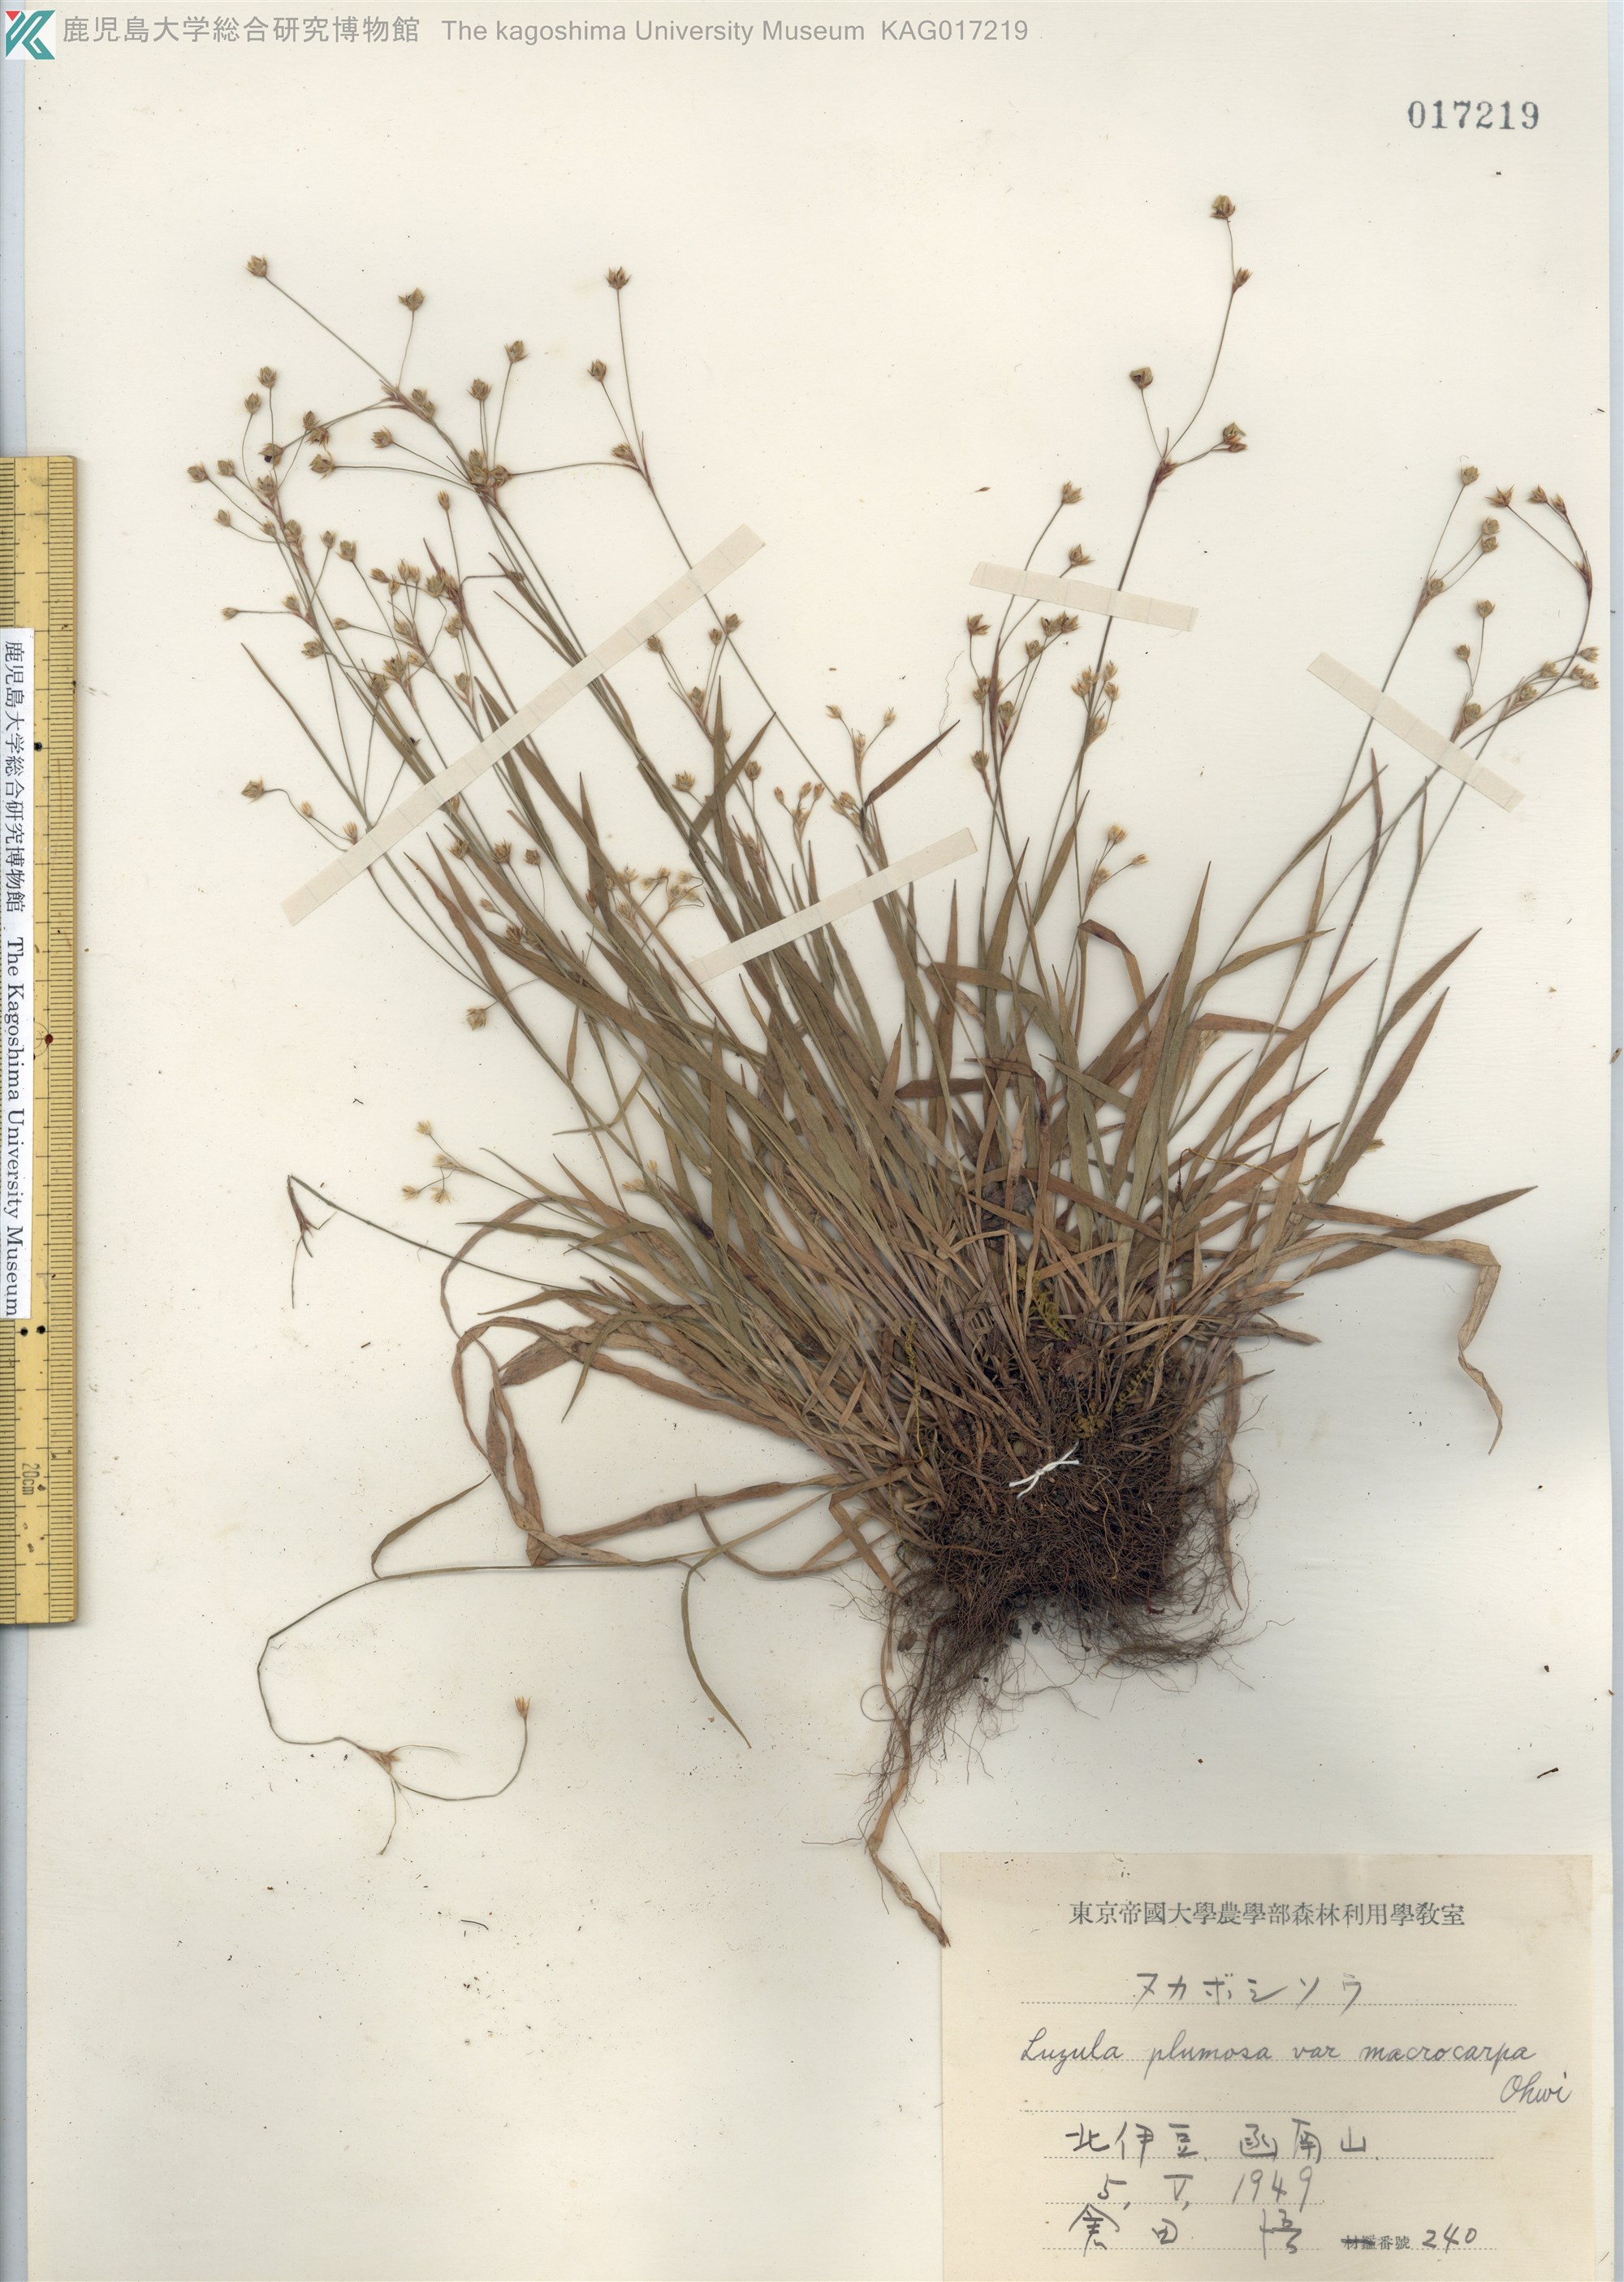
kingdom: Plantae
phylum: Tracheophyta
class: Liliopsida
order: Poales
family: Juncaceae
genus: Luzula
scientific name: Luzula plumosa
